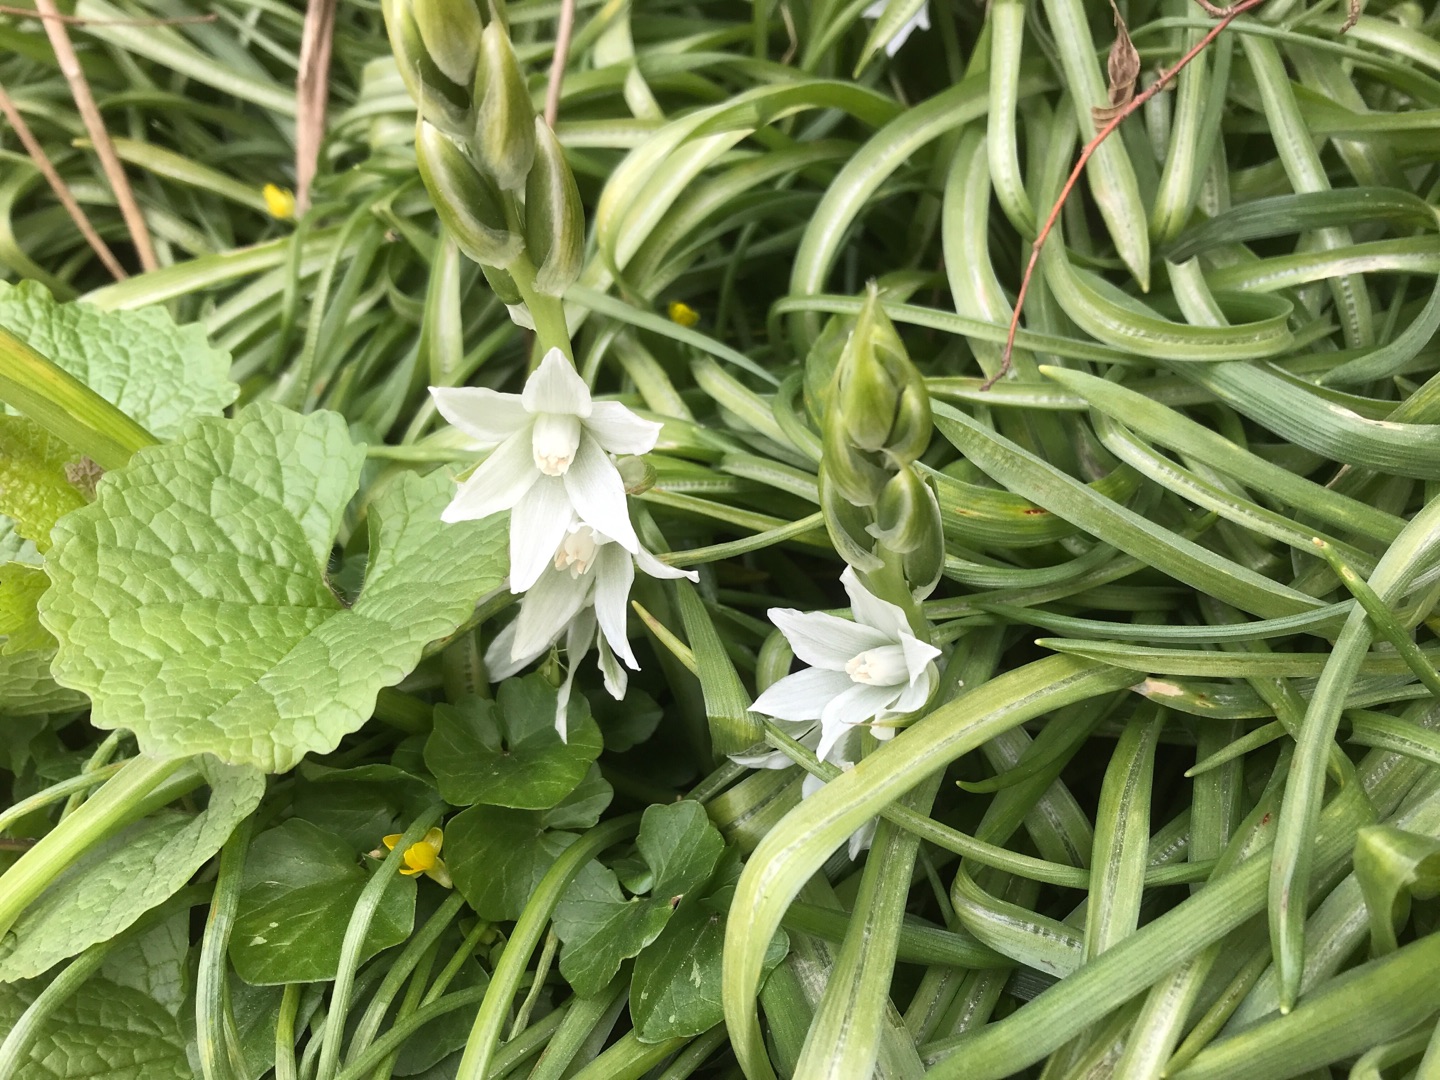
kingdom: Plantae
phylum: Tracheophyta
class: Liliopsida
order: Asparagales
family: Asparagaceae
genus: Ornithogalum
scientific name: Ornithogalum nutans
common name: Nikkende fuglemælk
